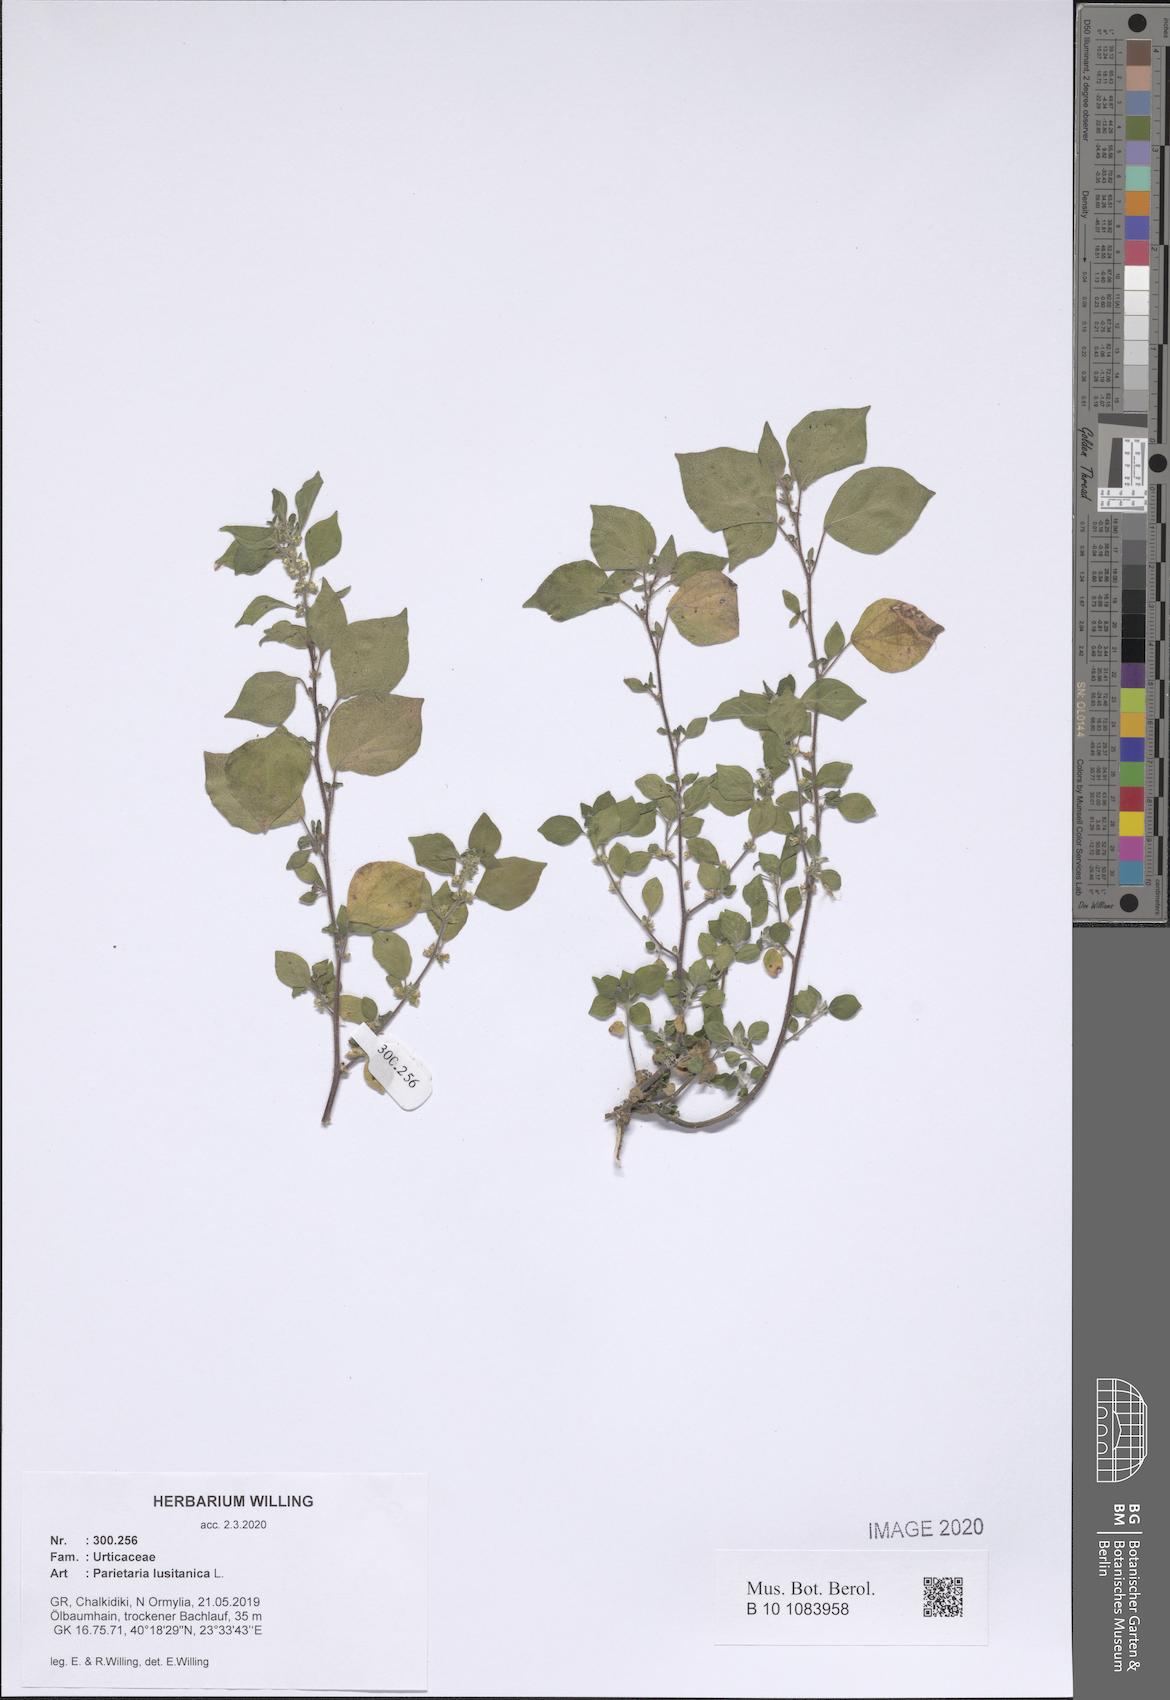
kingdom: Plantae
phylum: Tracheophyta
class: Magnoliopsida
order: Rosales
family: Urticaceae
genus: Parietaria
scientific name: Parietaria lusitanica
